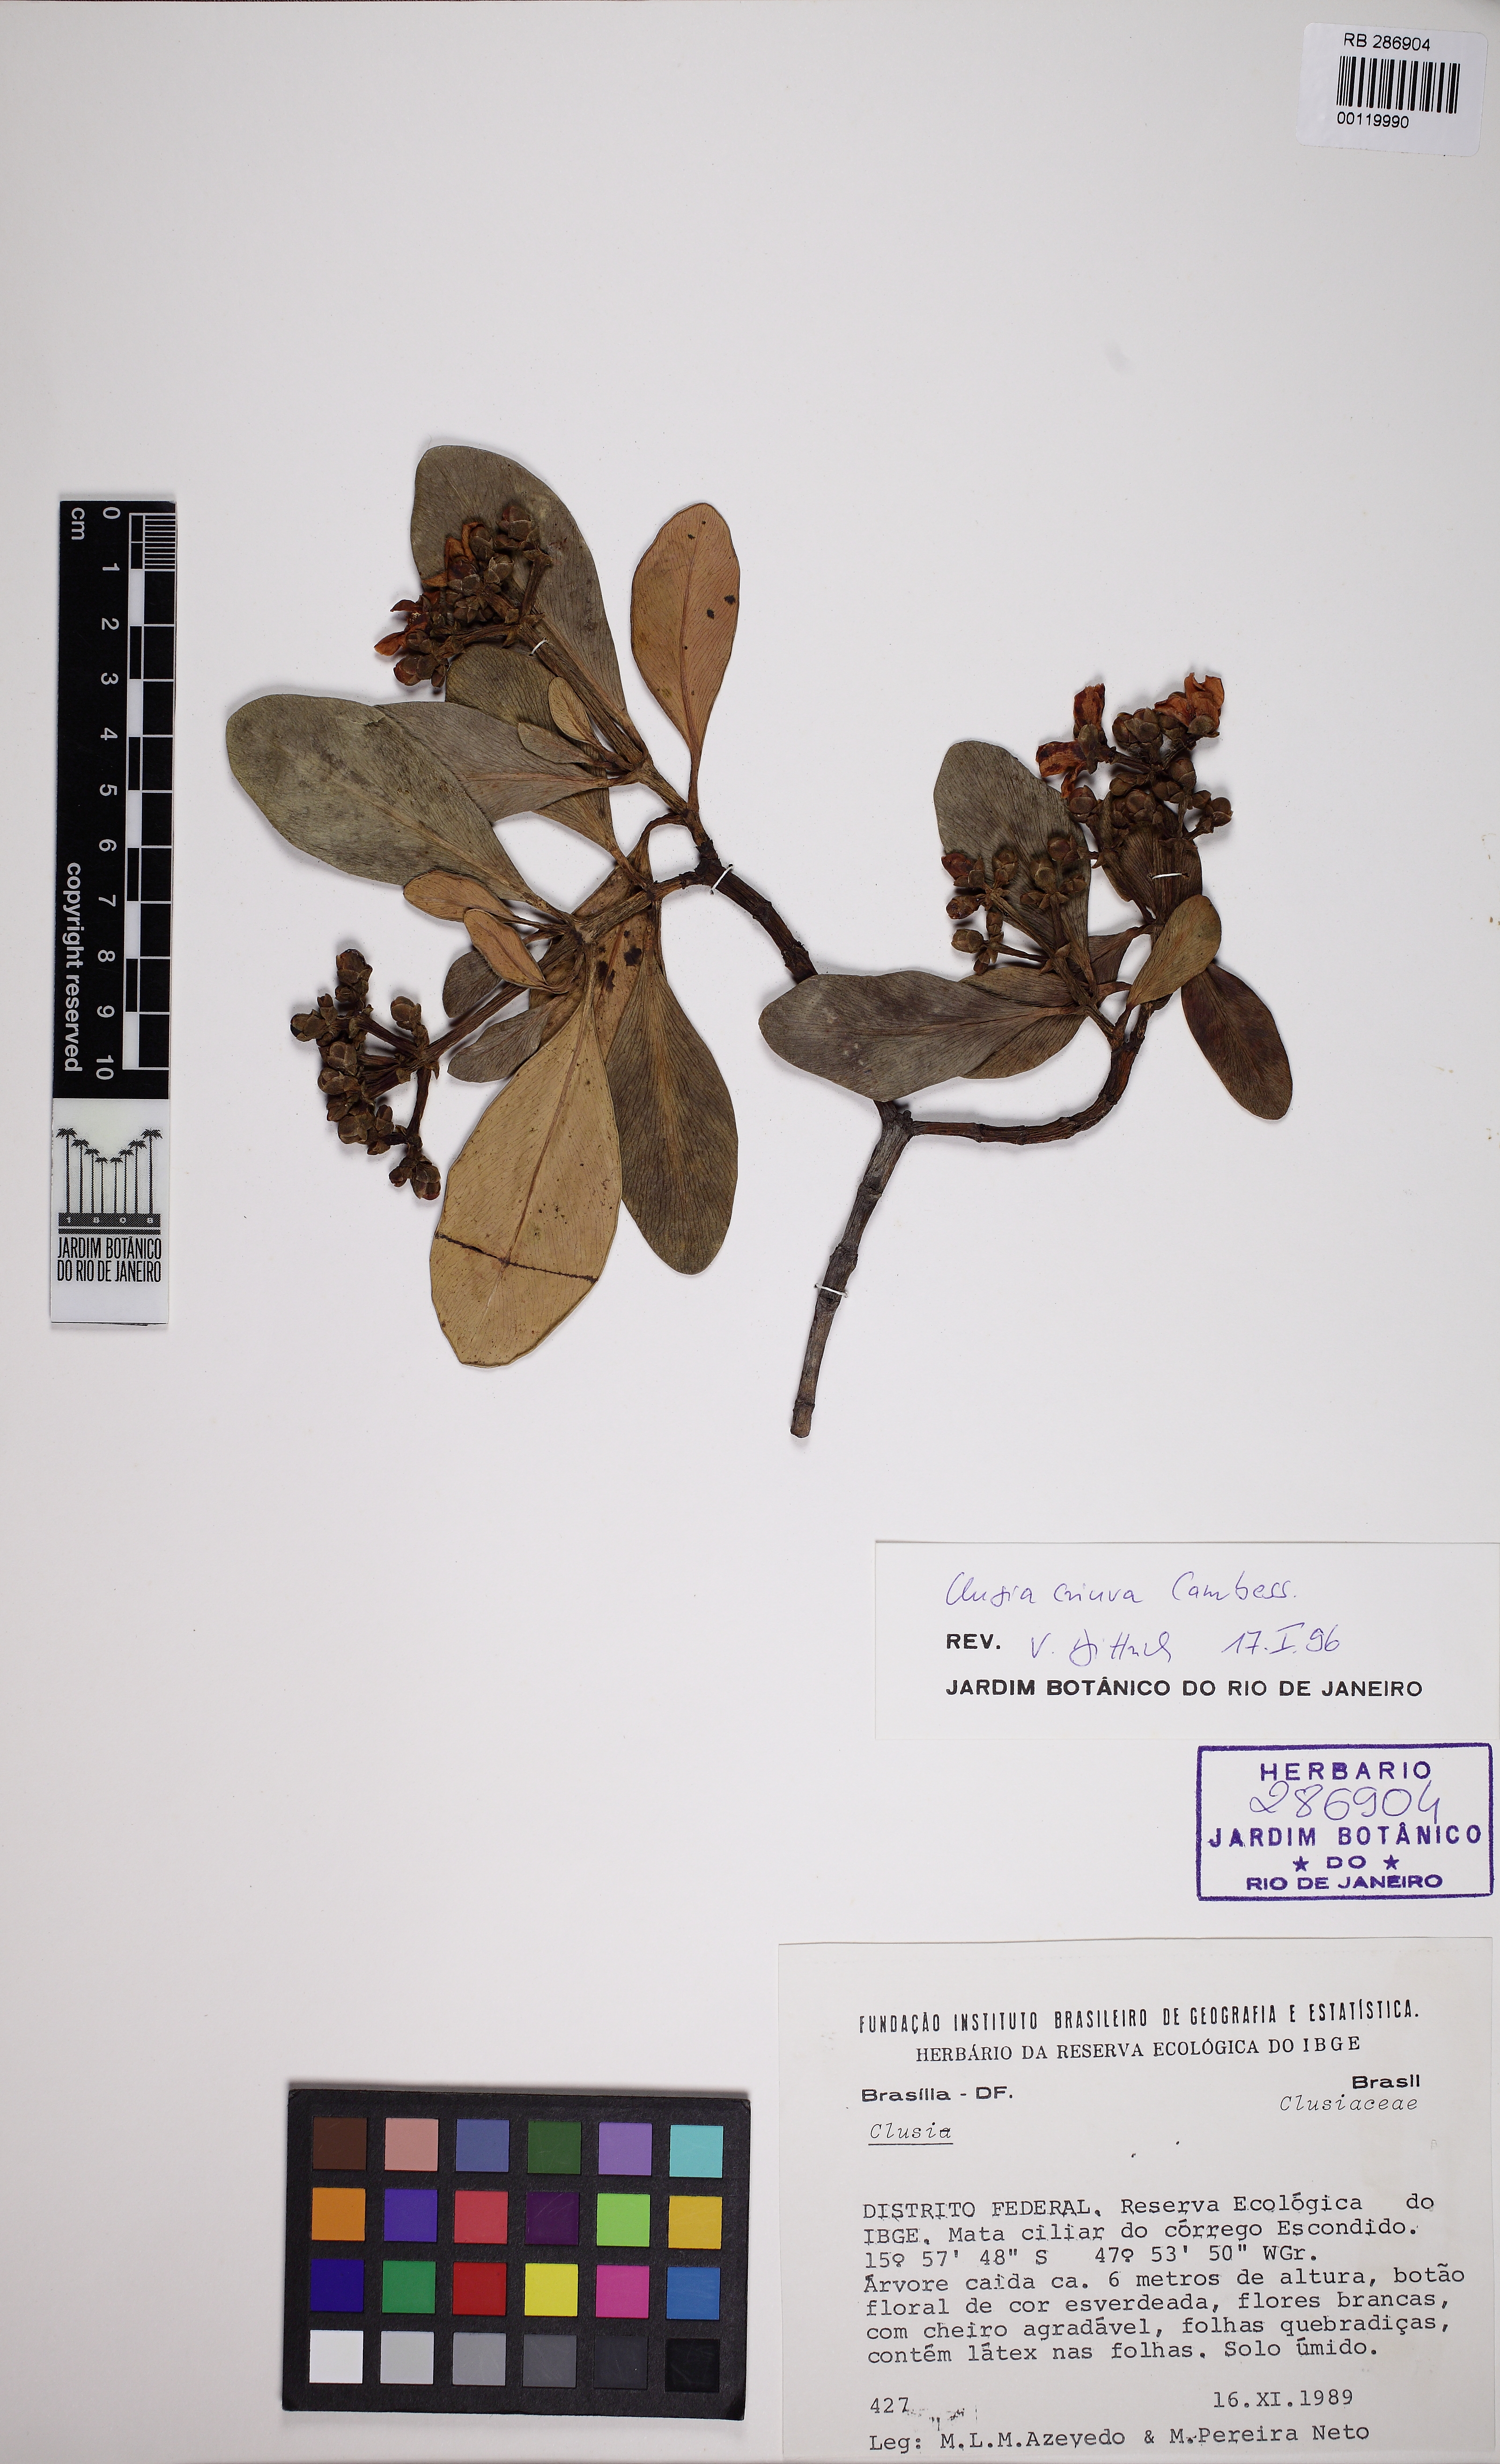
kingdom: Plantae
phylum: Tracheophyta
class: Magnoliopsida
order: Malpighiales
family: Clusiaceae
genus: Clusia
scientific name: Clusia criuva
